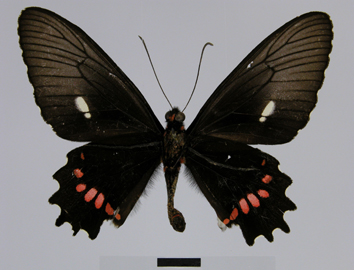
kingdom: Animalia
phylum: Arthropoda
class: Insecta
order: Lepidoptera
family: Papilionidae
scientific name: Papilionidae
